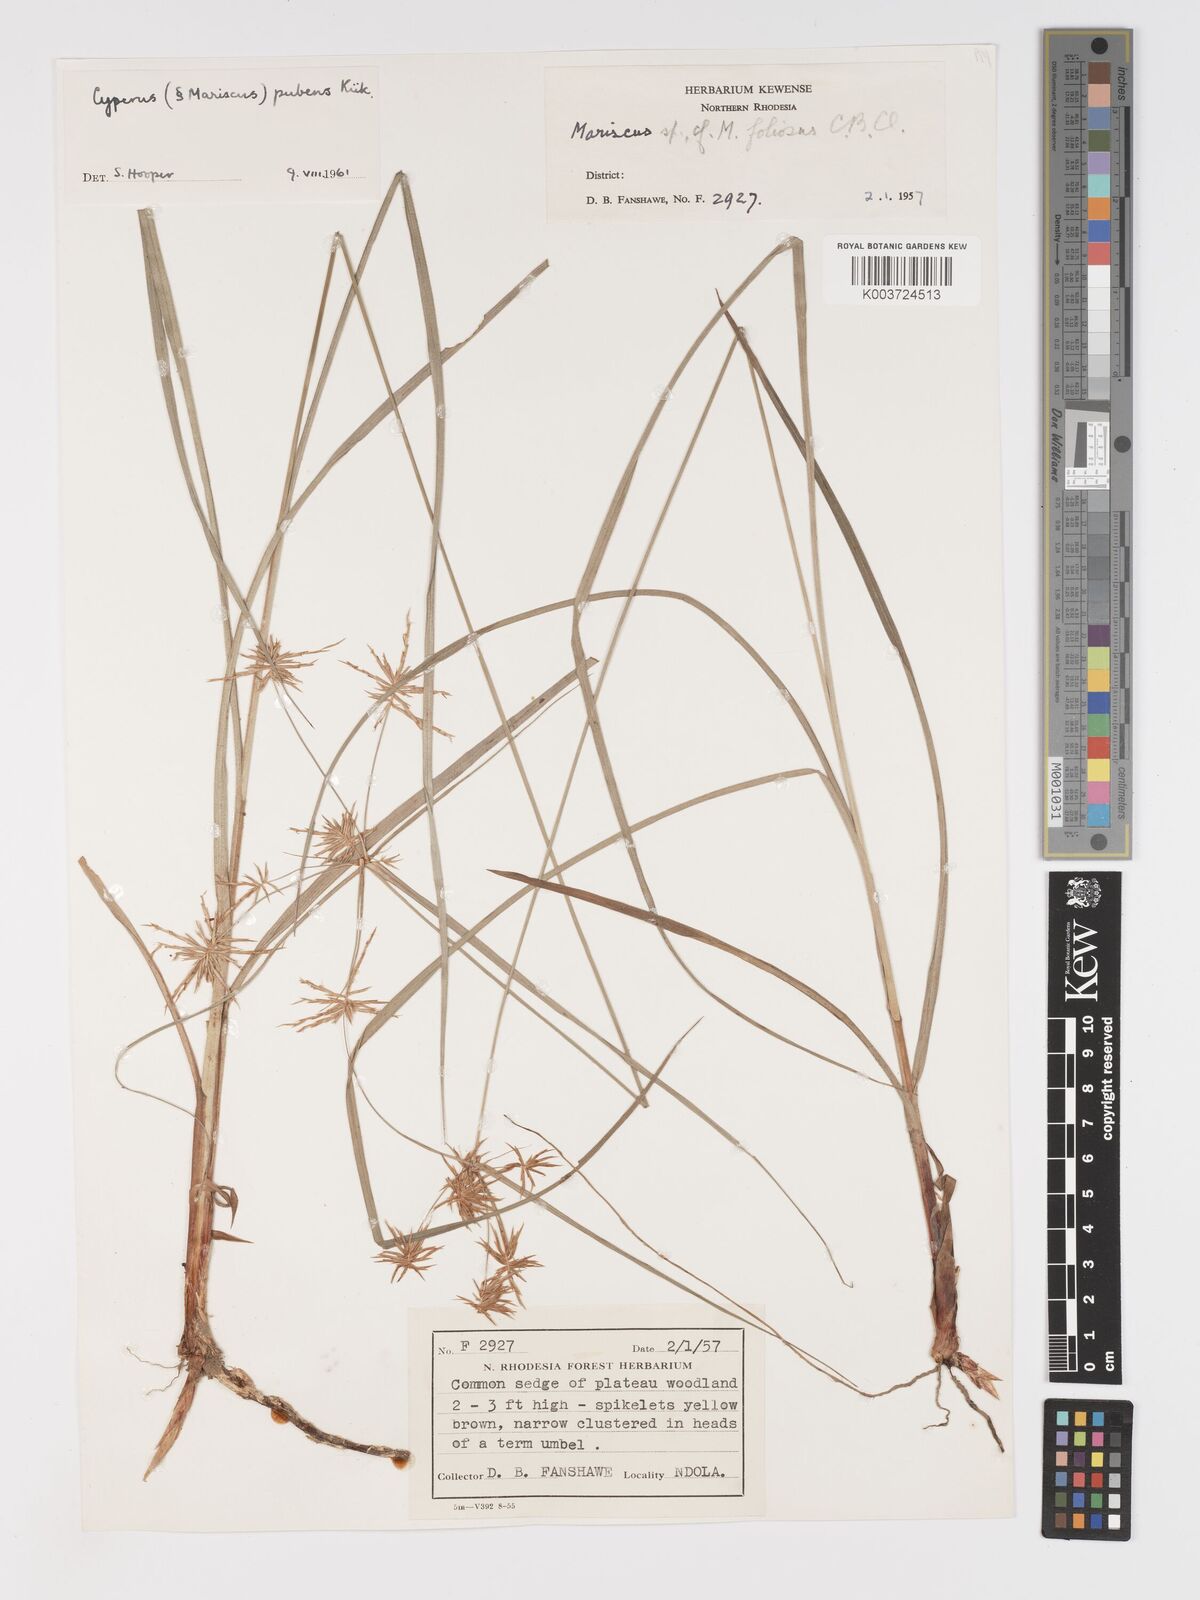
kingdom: Plantae
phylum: Tracheophyta
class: Liliopsida
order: Poales
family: Cyperaceae
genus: Cyperus
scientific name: Cyperus pubens
